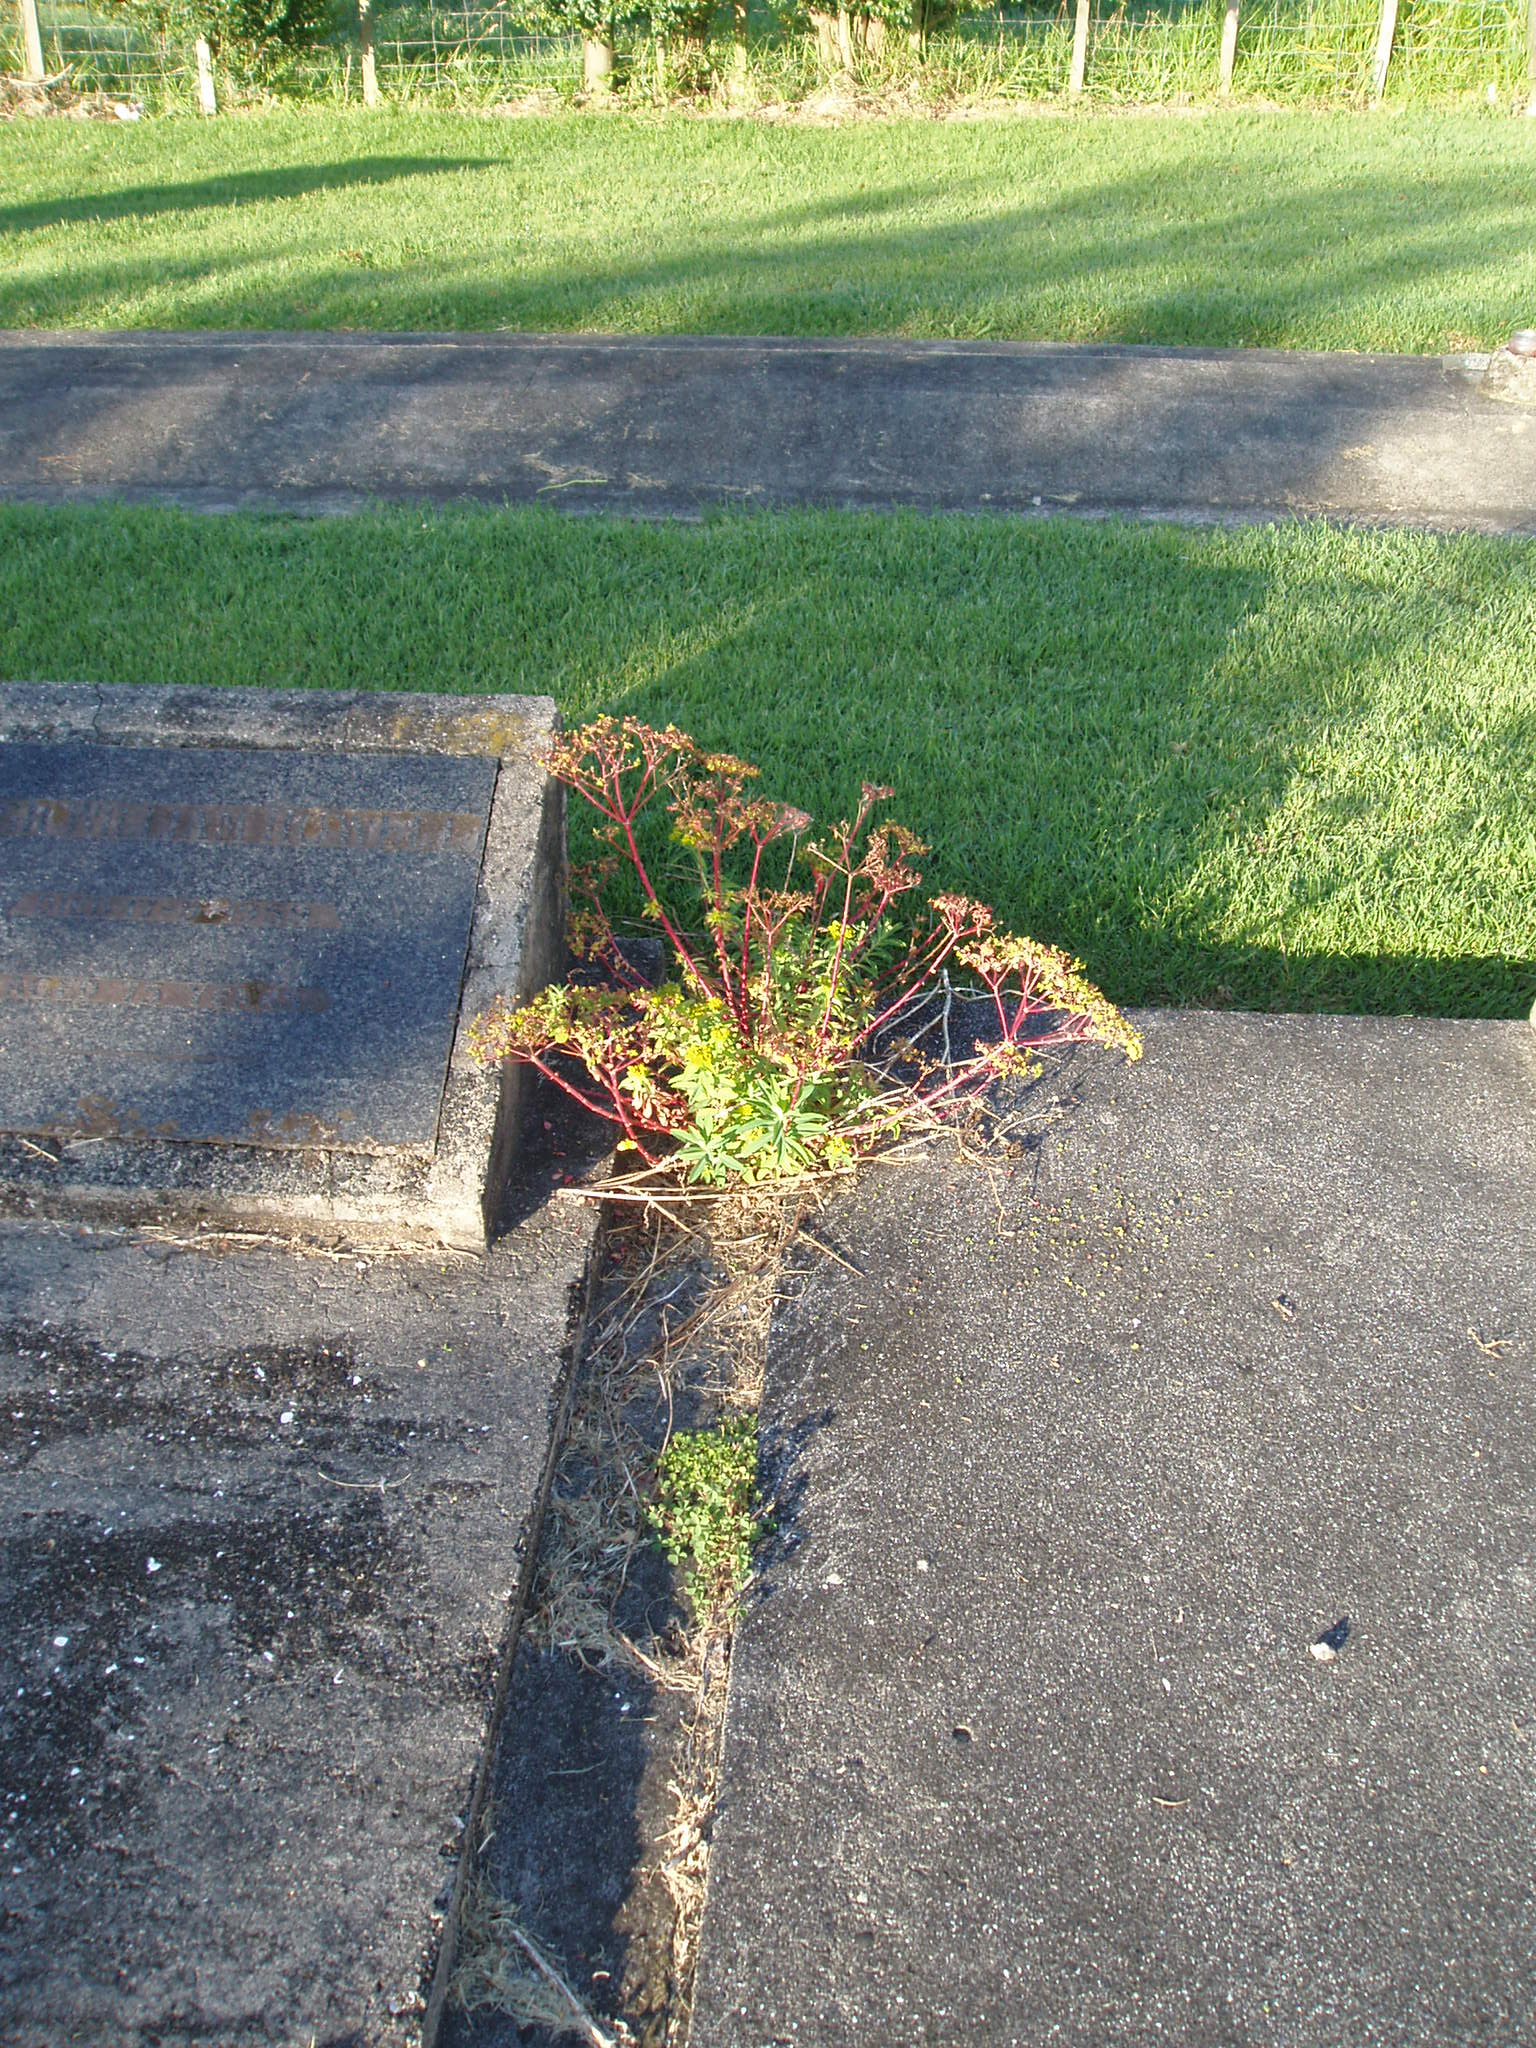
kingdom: Plantae
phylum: Tracheophyta
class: Magnoliopsida
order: Malpighiales
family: Euphorbiaceae
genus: Euphorbia
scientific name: Euphorbia oblongata
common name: Balkan spurge
